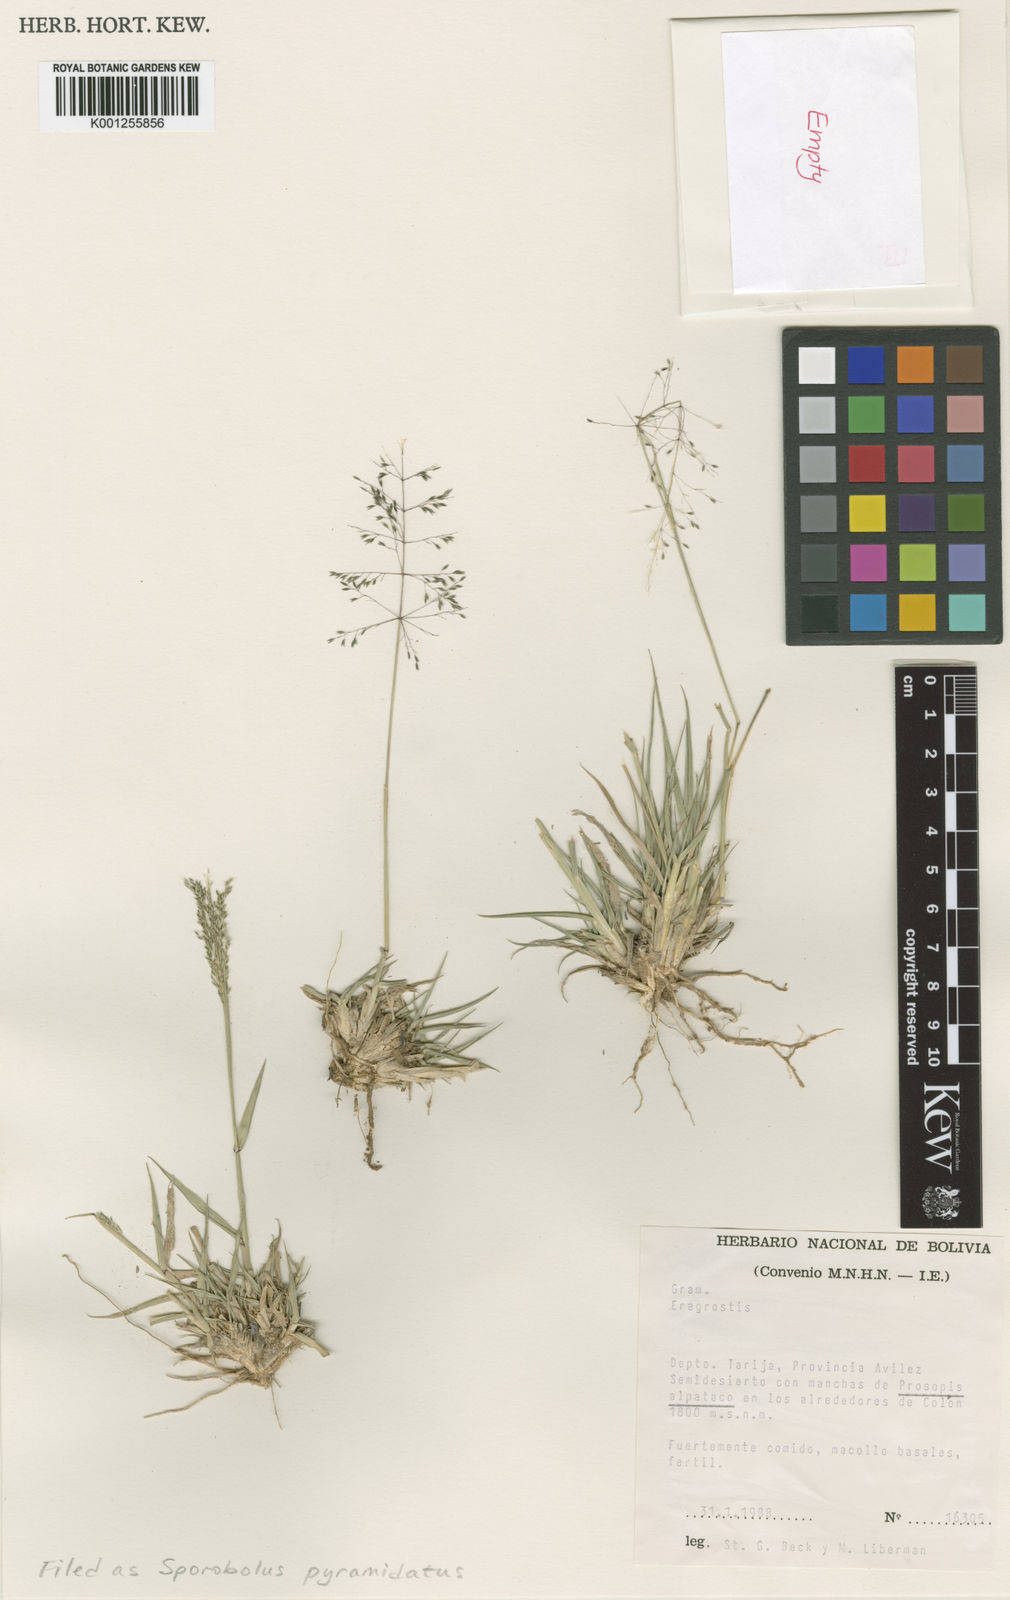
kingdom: Plantae
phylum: Tracheophyta
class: Liliopsida
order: Poales
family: Poaceae
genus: Sporobolus
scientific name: Sporobolus pyramidatus
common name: Whorled dropseed
